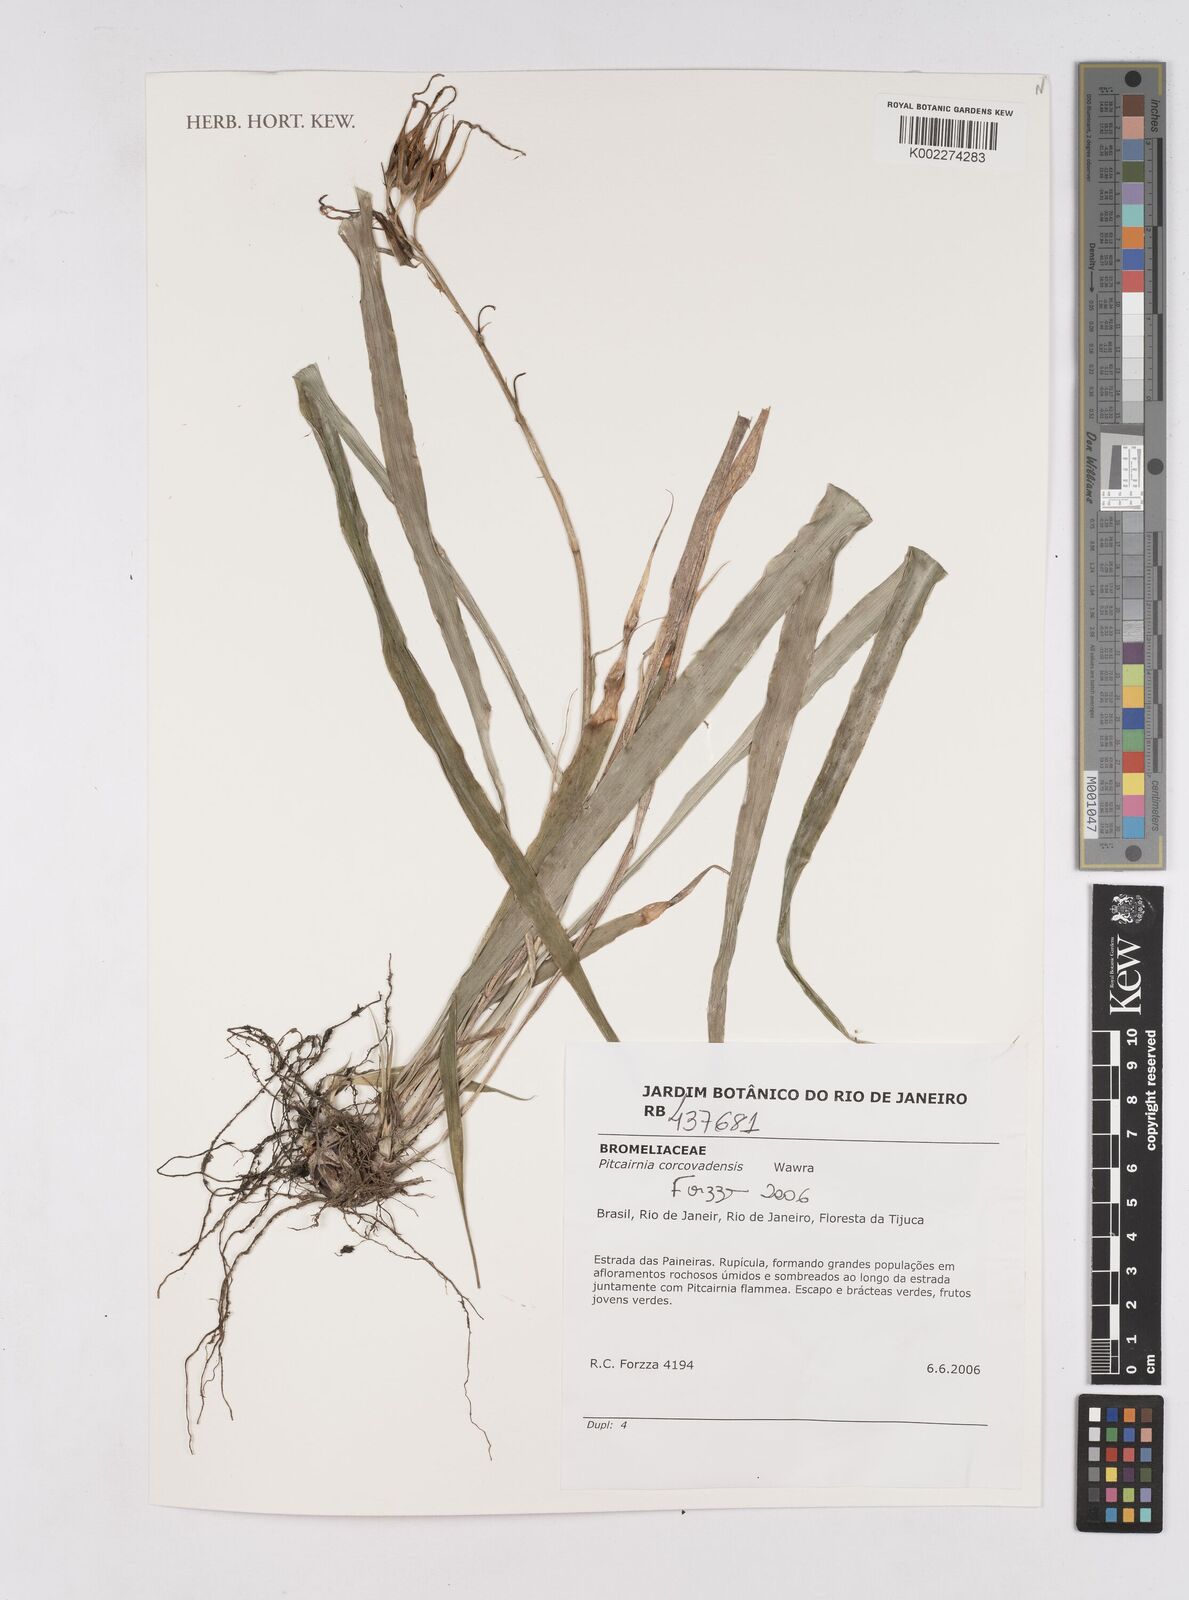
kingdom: Plantae
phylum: Tracheophyta
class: Liliopsida
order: Poales
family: Bromeliaceae
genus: Pitcairnia
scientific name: Pitcairnia corcovadensis
